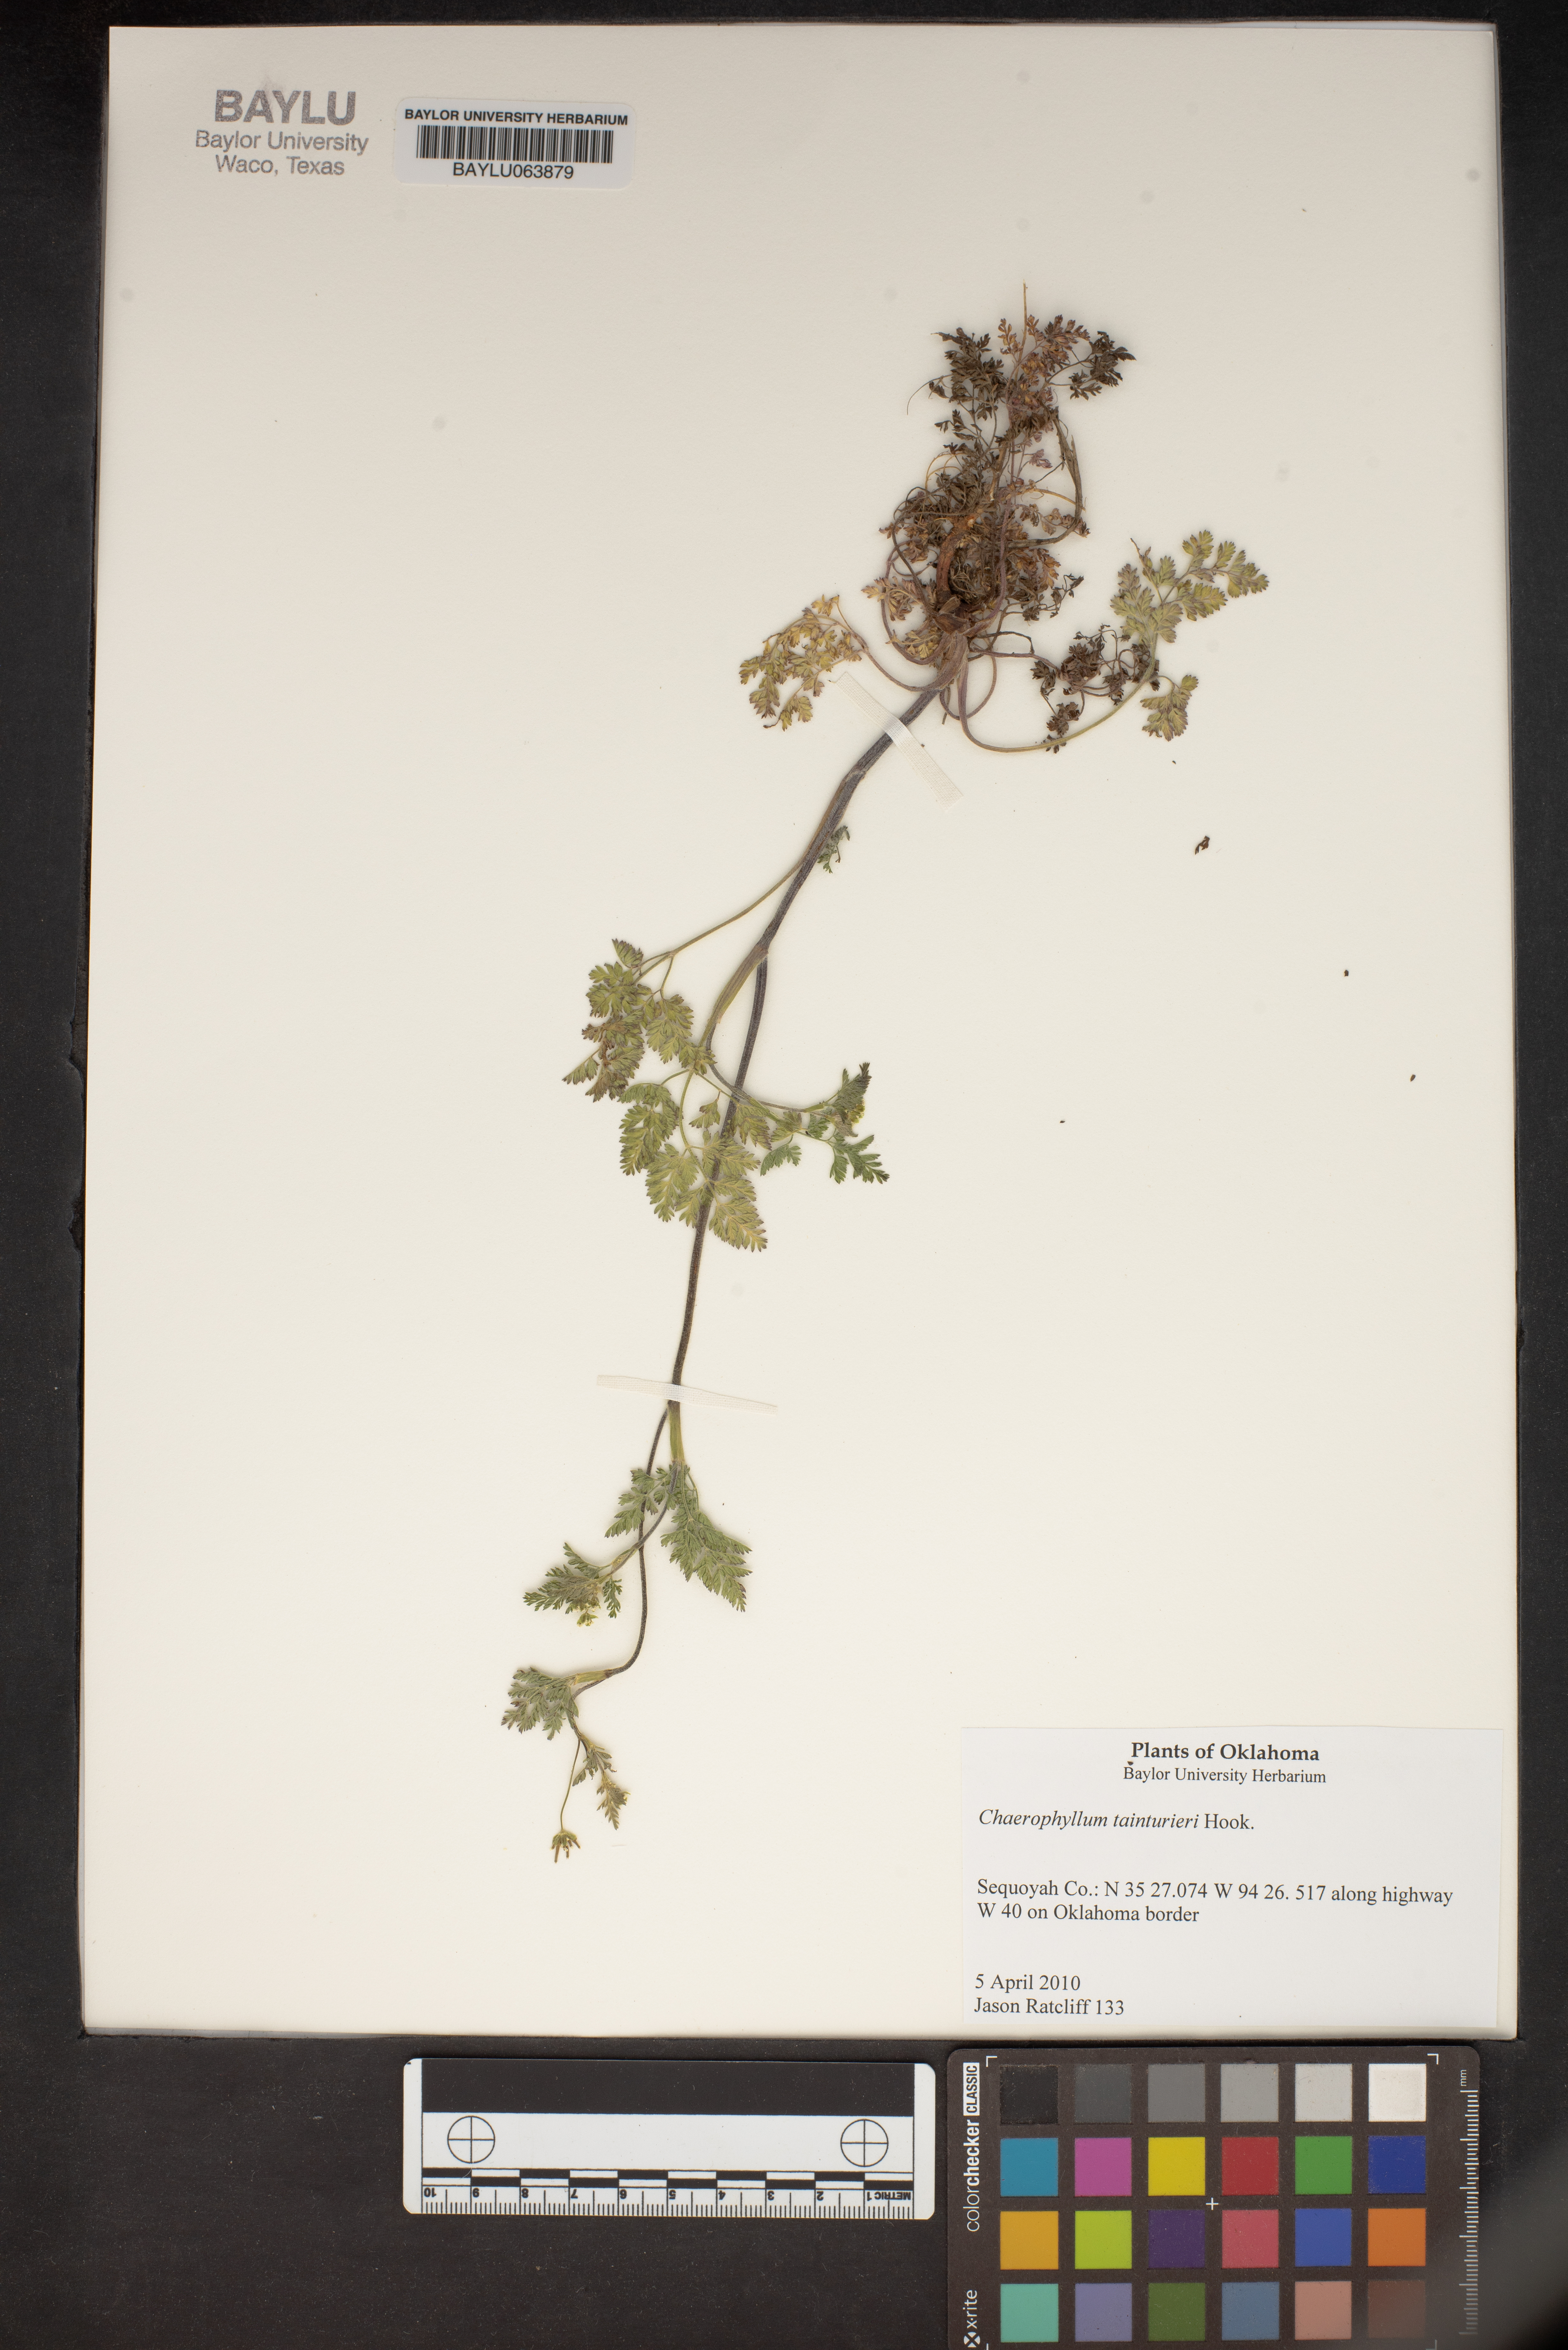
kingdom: Plantae
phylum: Tracheophyta
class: Magnoliopsida
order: Apiales
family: Apiaceae
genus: Chaerophyllum
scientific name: Chaerophyllum tainturieri
